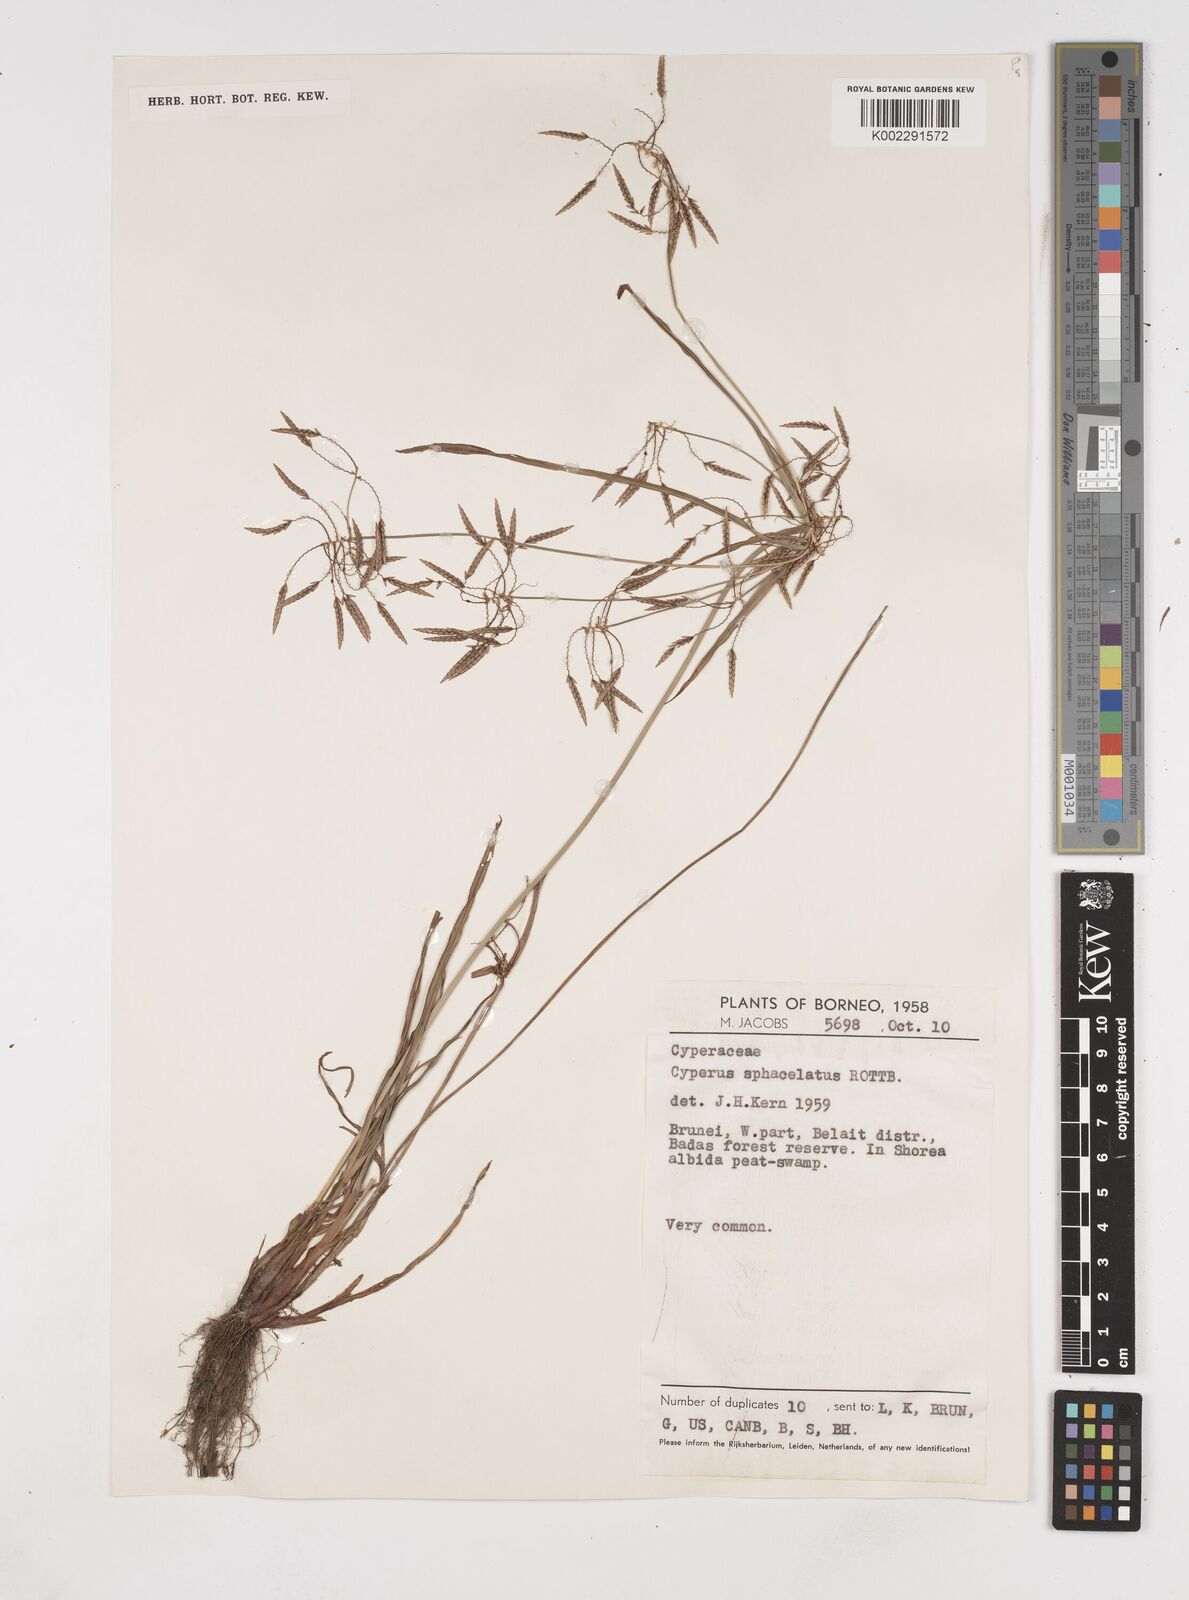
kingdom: Plantae
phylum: Tracheophyta
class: Liliopsida
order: Poales
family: Cyperaceae
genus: Cyperus
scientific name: Cyperus sphacelatus
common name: Roadside flatsedge
